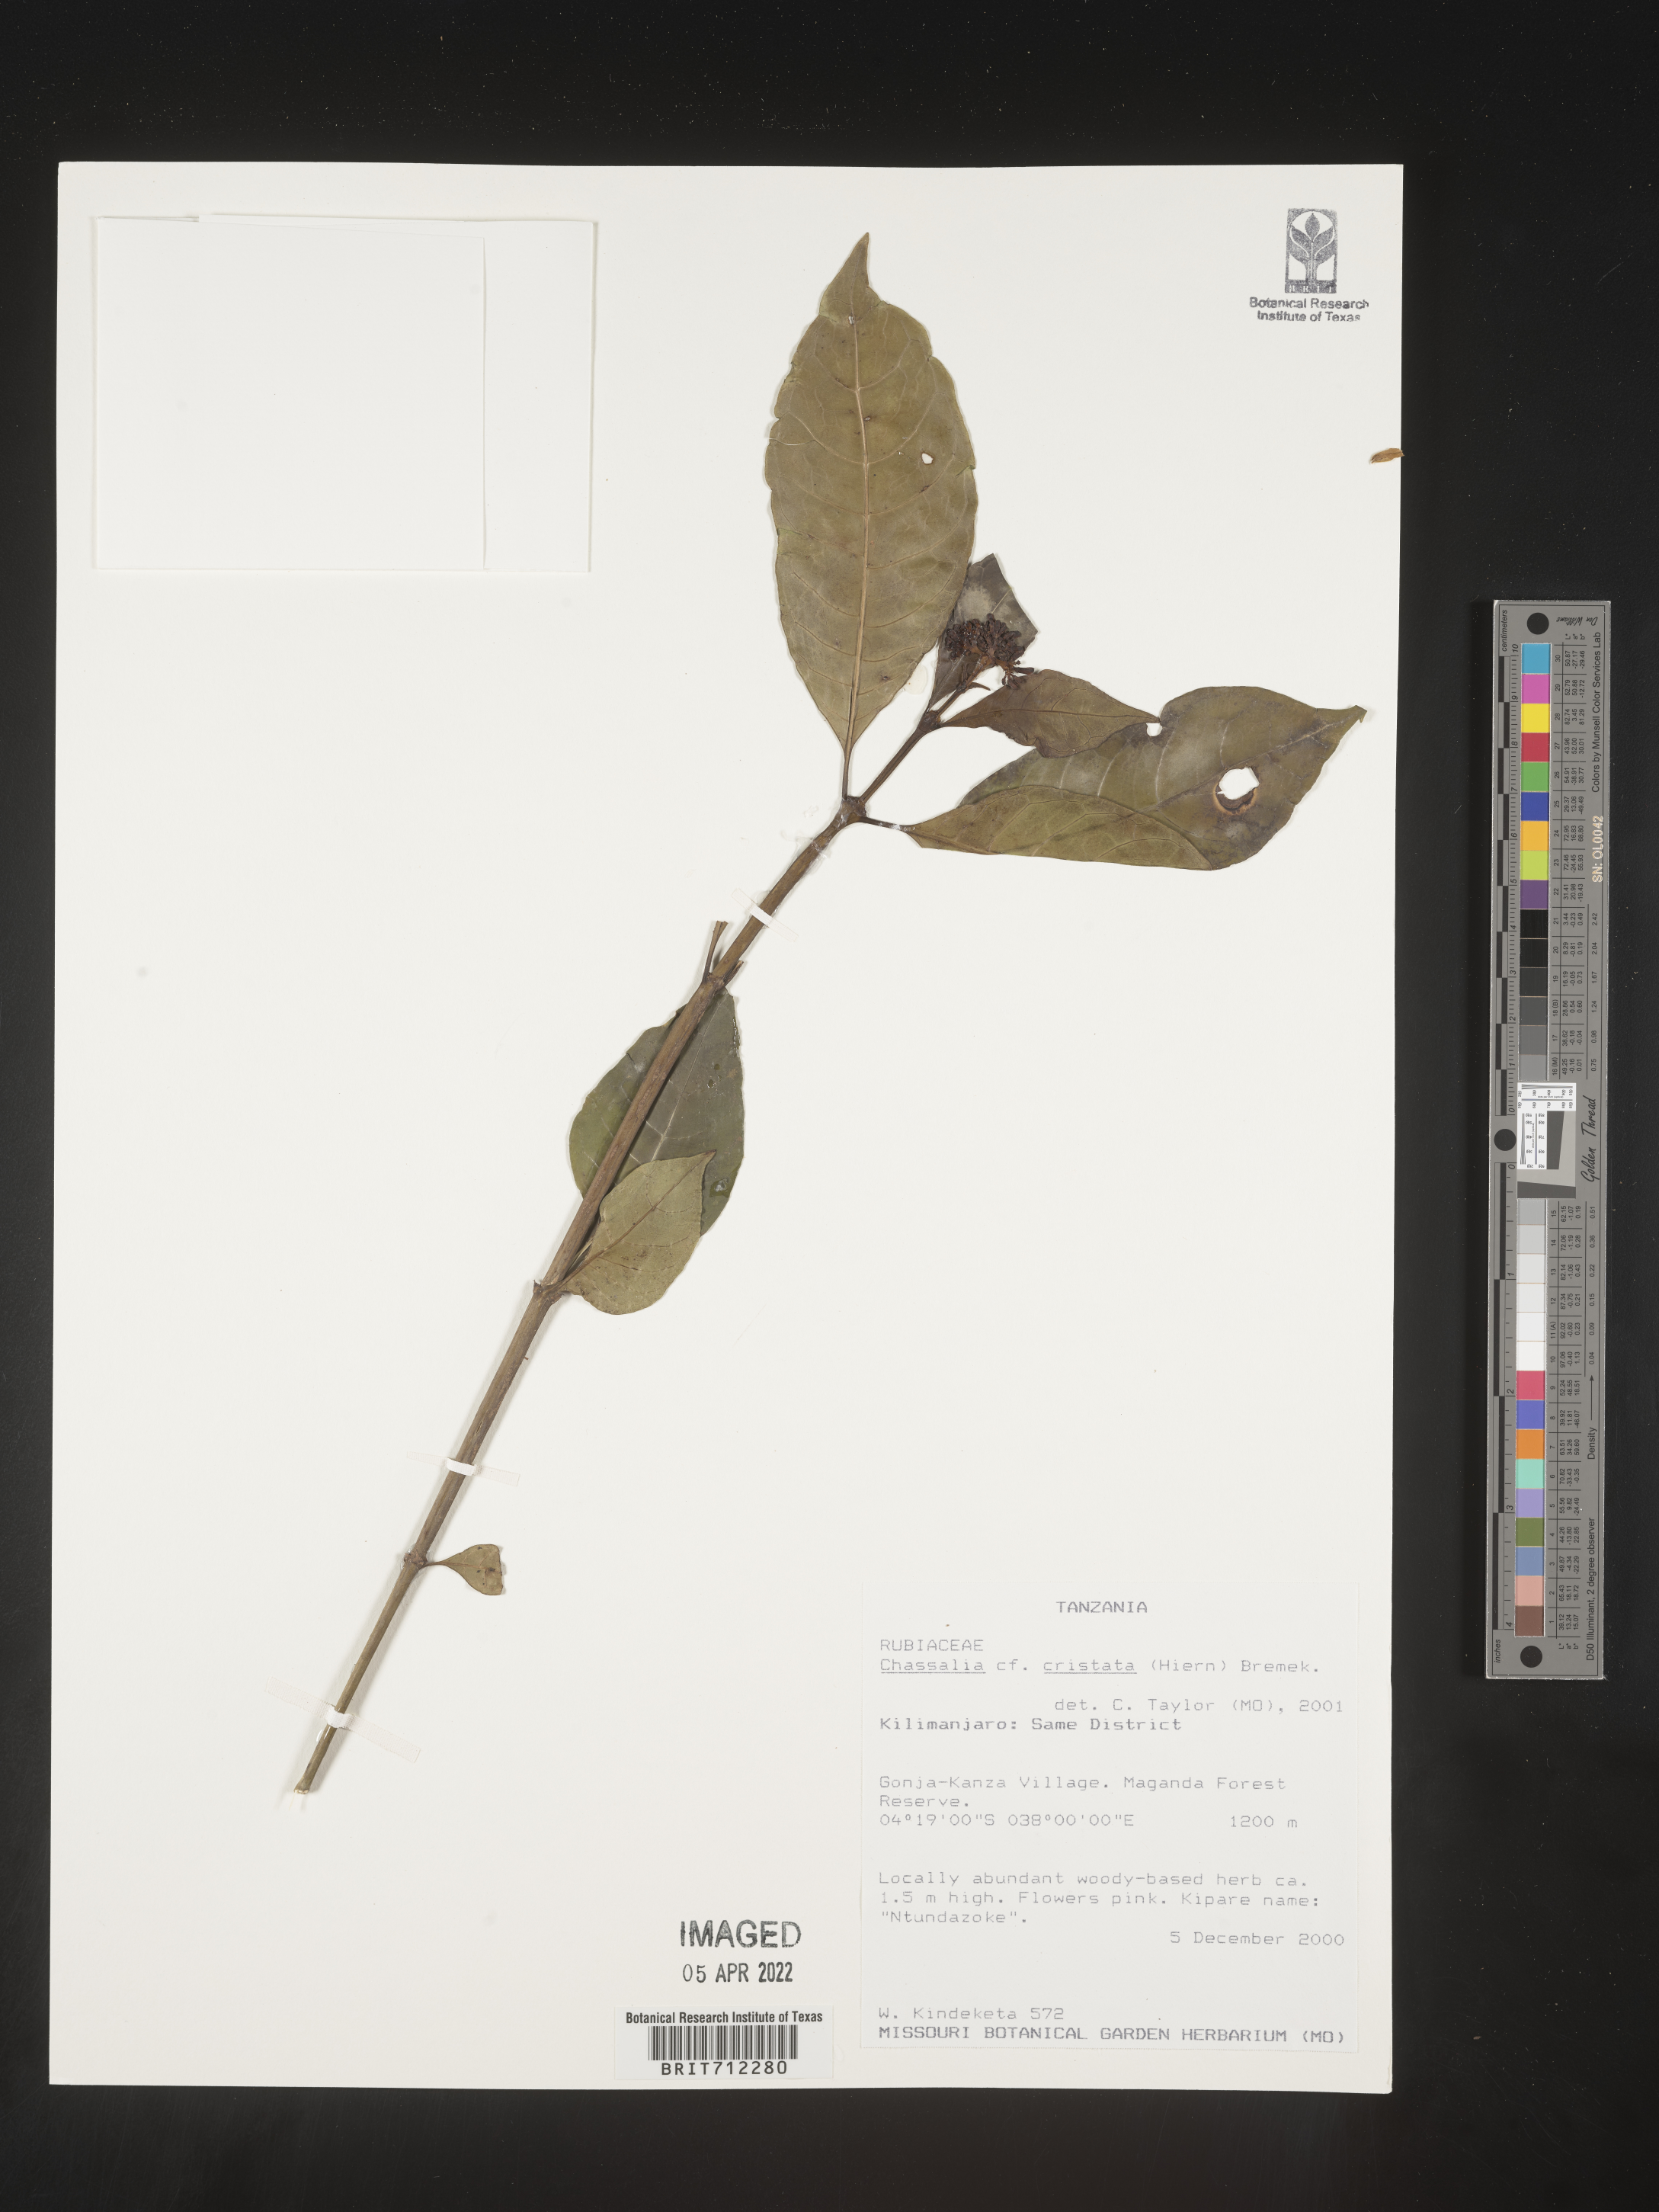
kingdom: Plantae
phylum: Tracheophyta
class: Magnoliopsida
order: Gentianales
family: Rubiaceae
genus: Chassalia
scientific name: Chassalia
